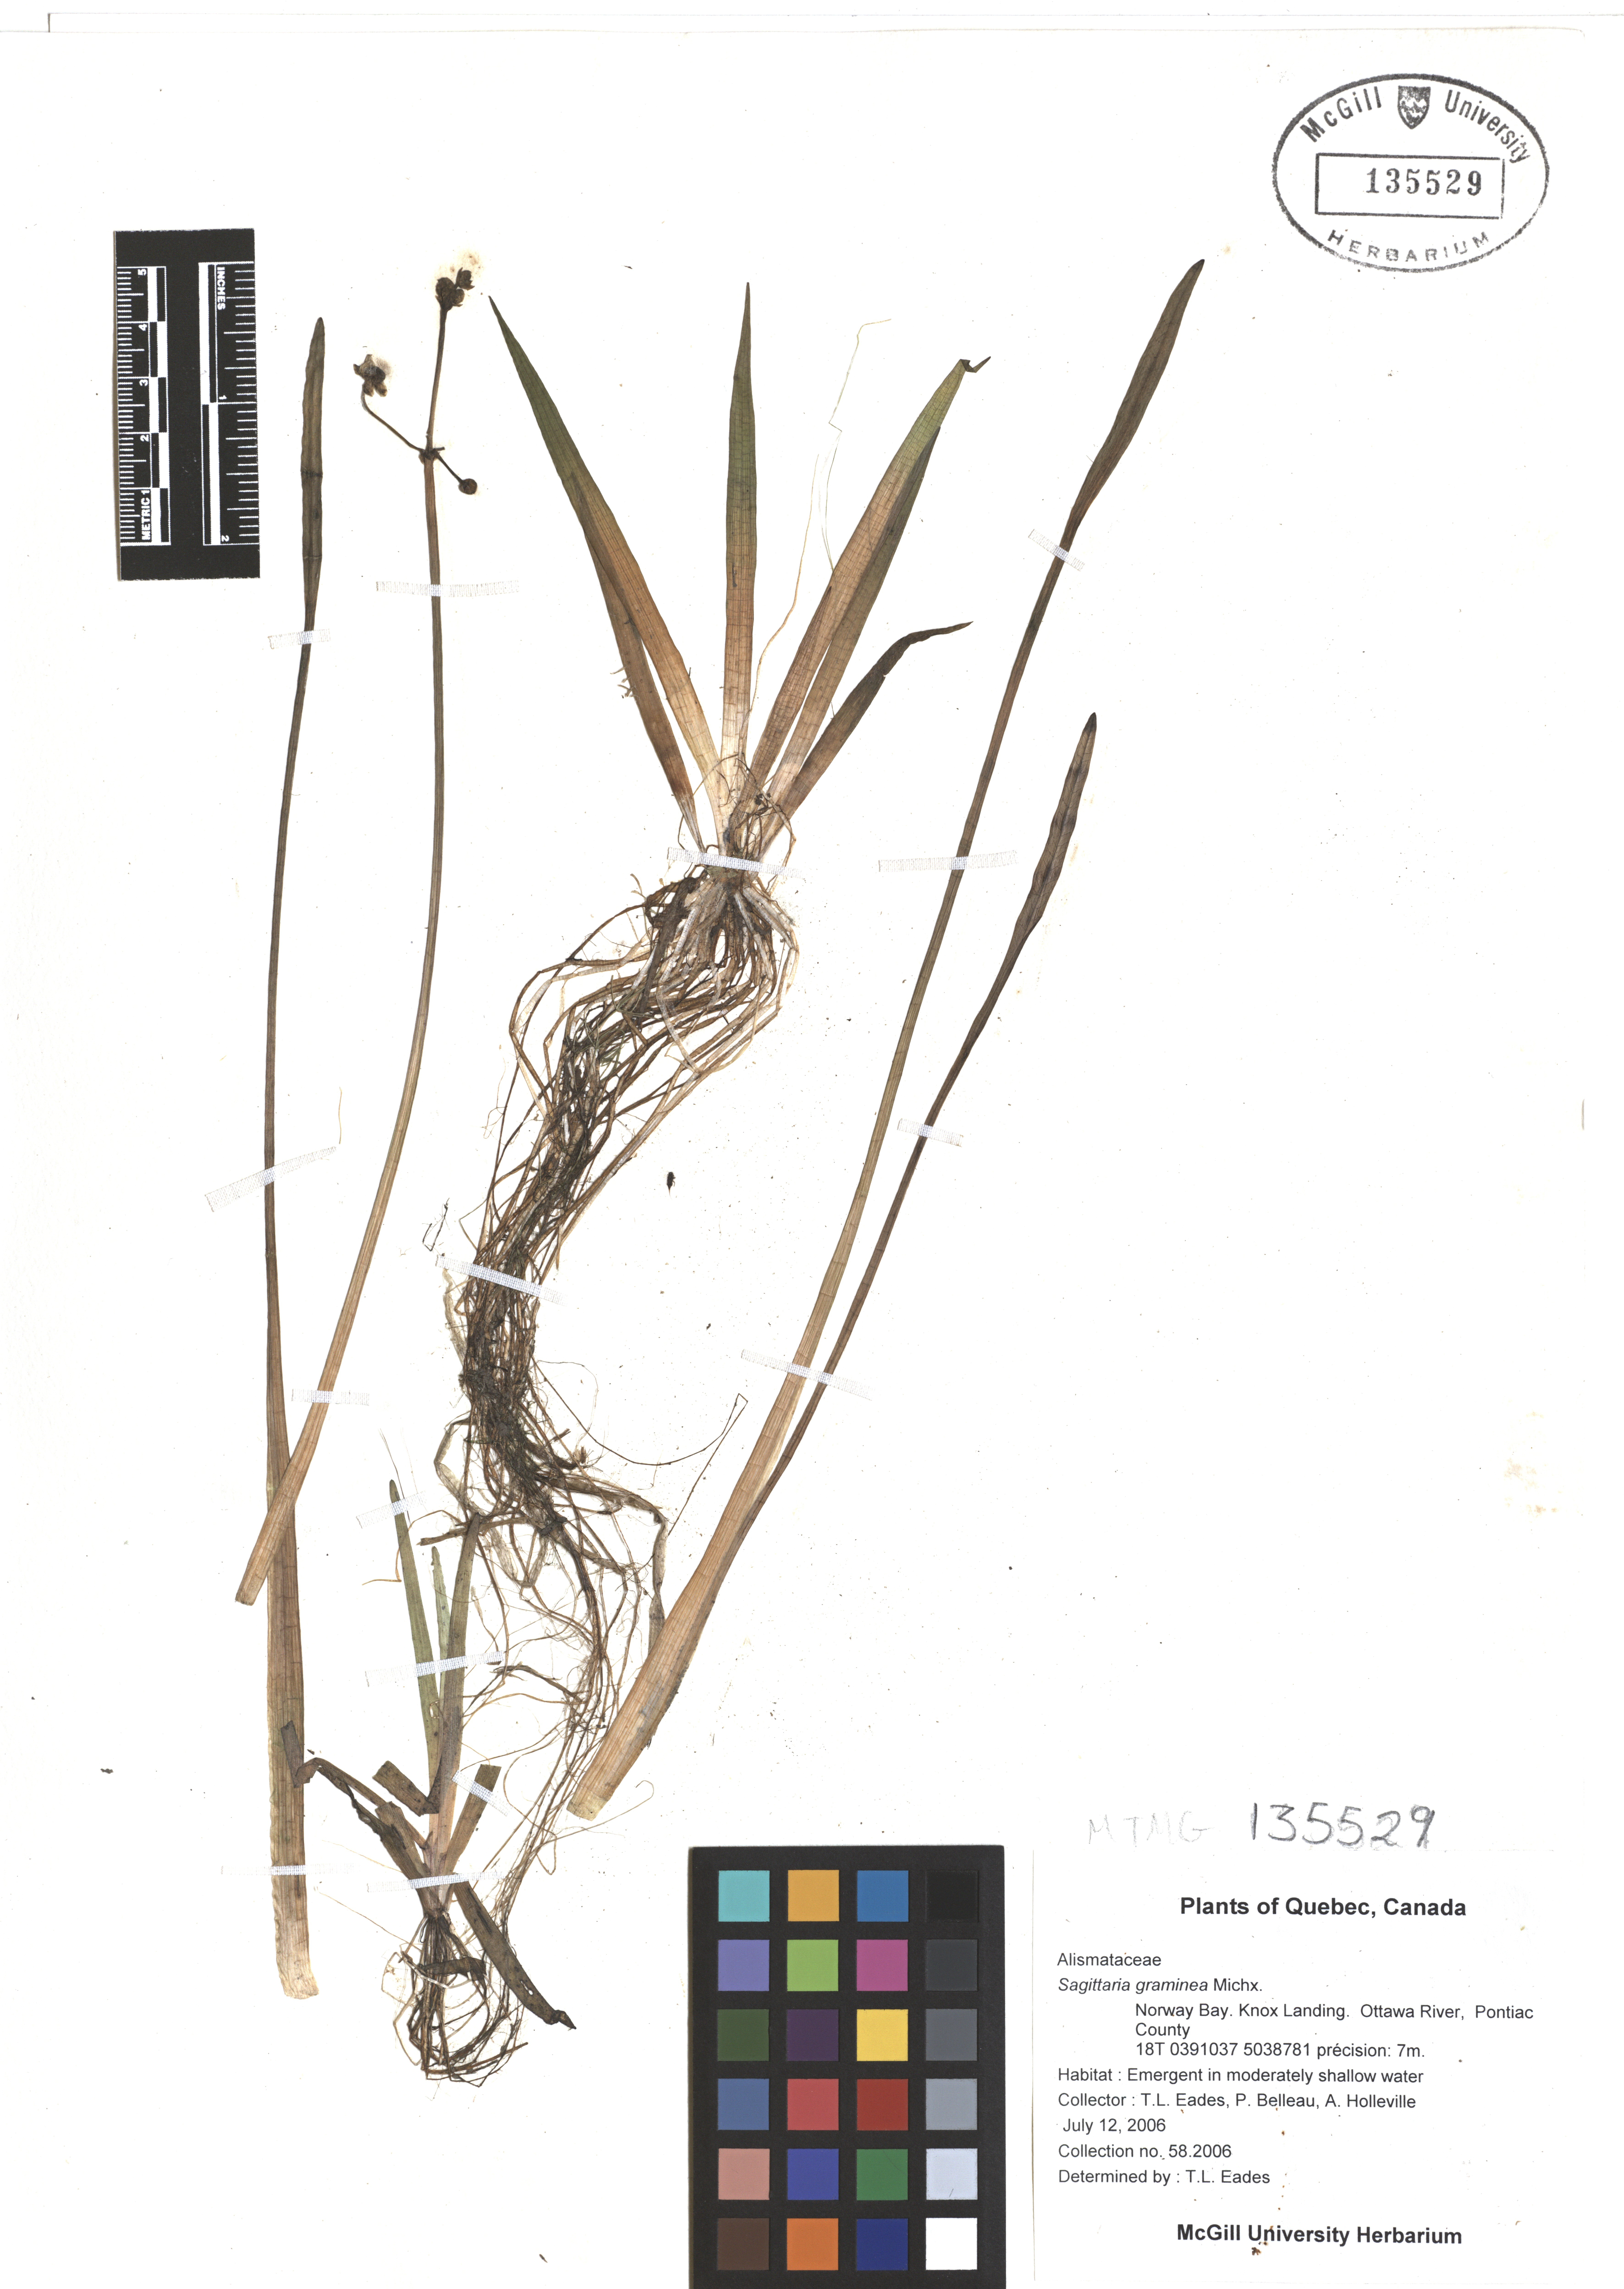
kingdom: Plantae
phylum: Tracheophyta
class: Liliopsida
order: Alismatales
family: Alismataceae
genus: Sagittaria
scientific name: Sagittaria graminea
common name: Grass-leaved arrowhead
